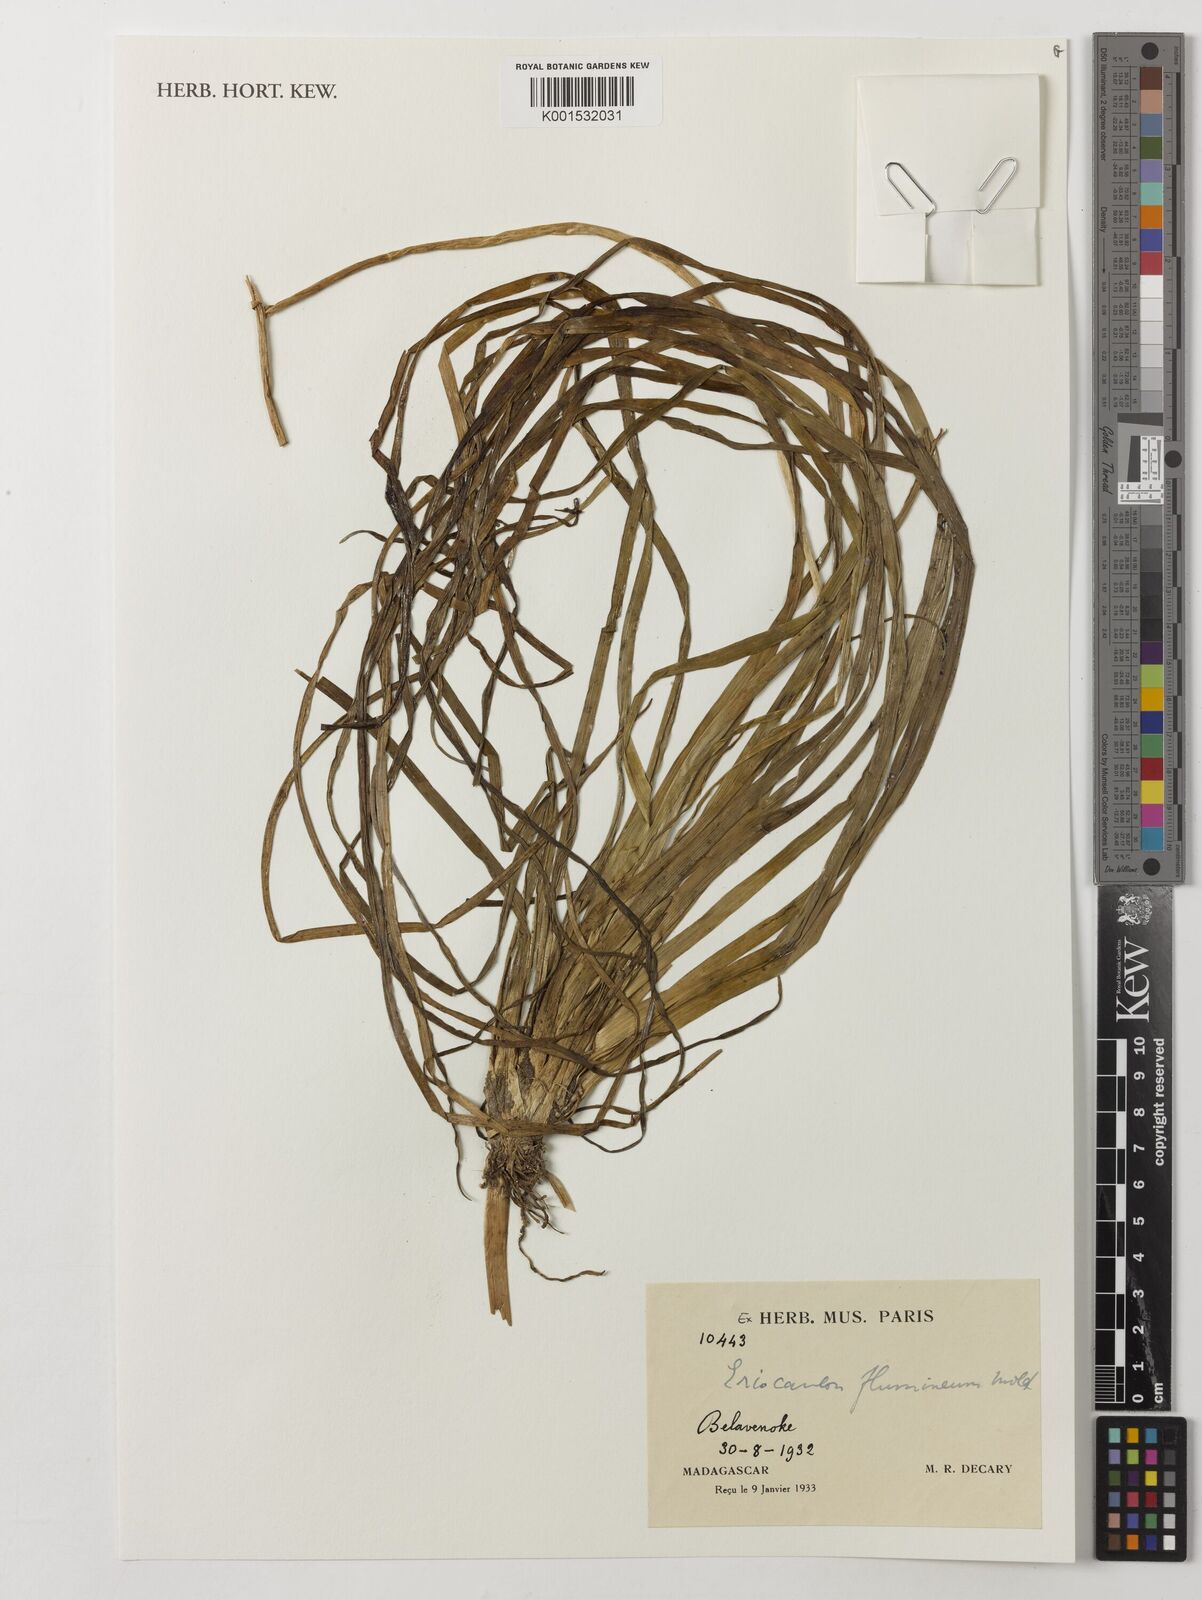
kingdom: Plantae
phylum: Tracheophyta
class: Liliopsida
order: Poales
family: Eriocaulaceae
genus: Eriocaulon
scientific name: Eriocaulon flumineum
